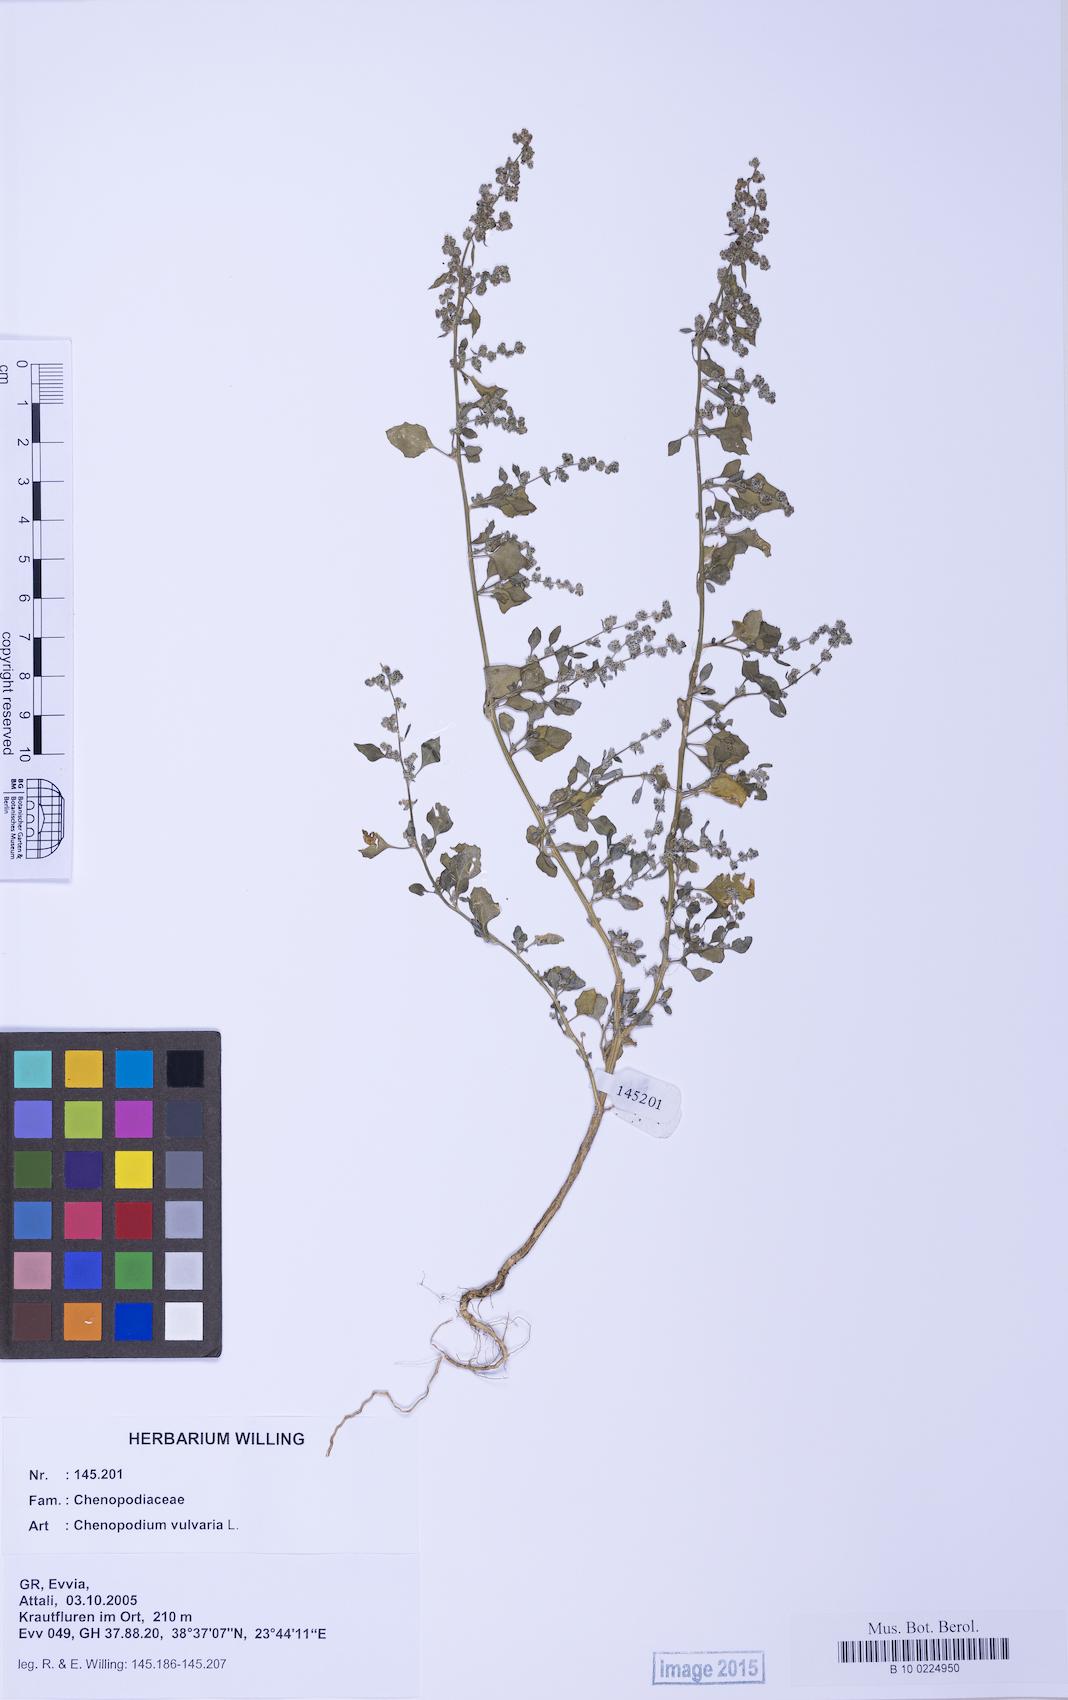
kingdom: Plantae
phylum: Tracheophyta
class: Magnoliopsida
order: Caryophyllales
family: Amaranthaceae
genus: Chenopodium
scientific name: Chenopodium vulvaria
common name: Stinking goosefoot
